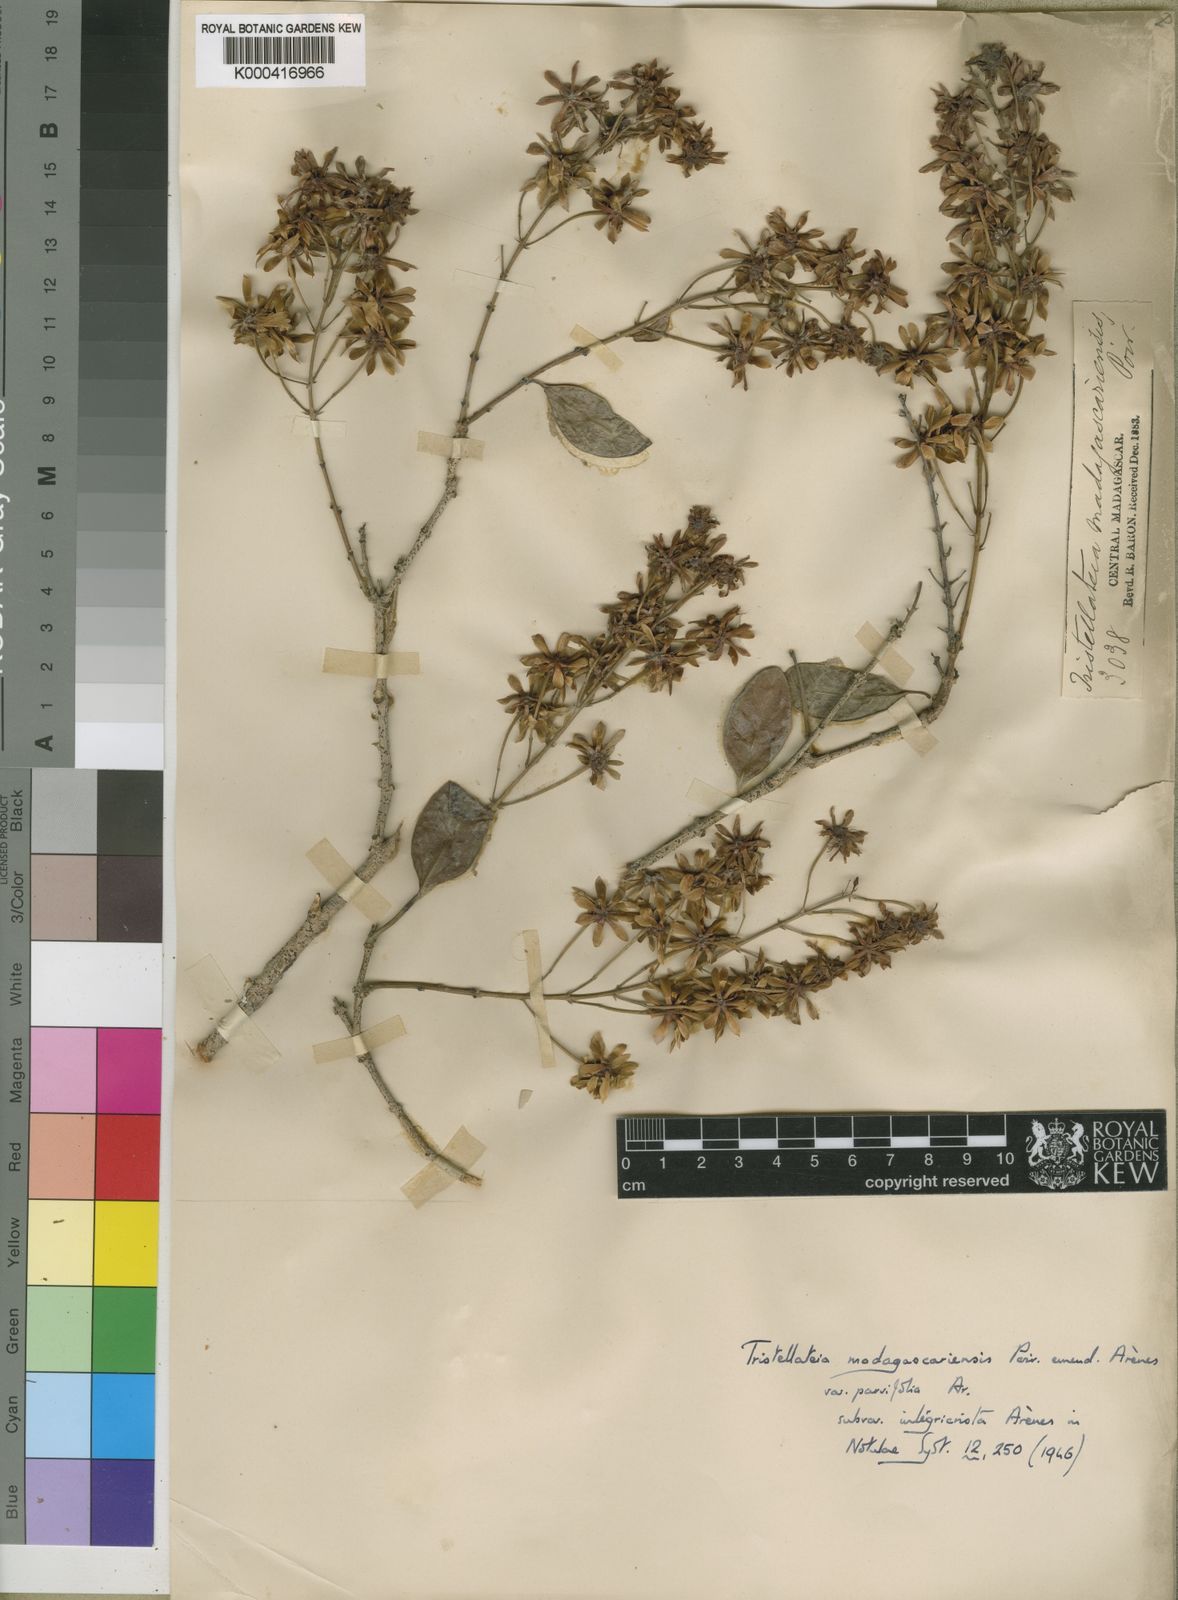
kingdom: Plantae
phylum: Tracheophyta
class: Magnoliopsida
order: Malpighiales
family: Malpighiaceae
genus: Tristellateia
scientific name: Tristellateia madagascariensis
